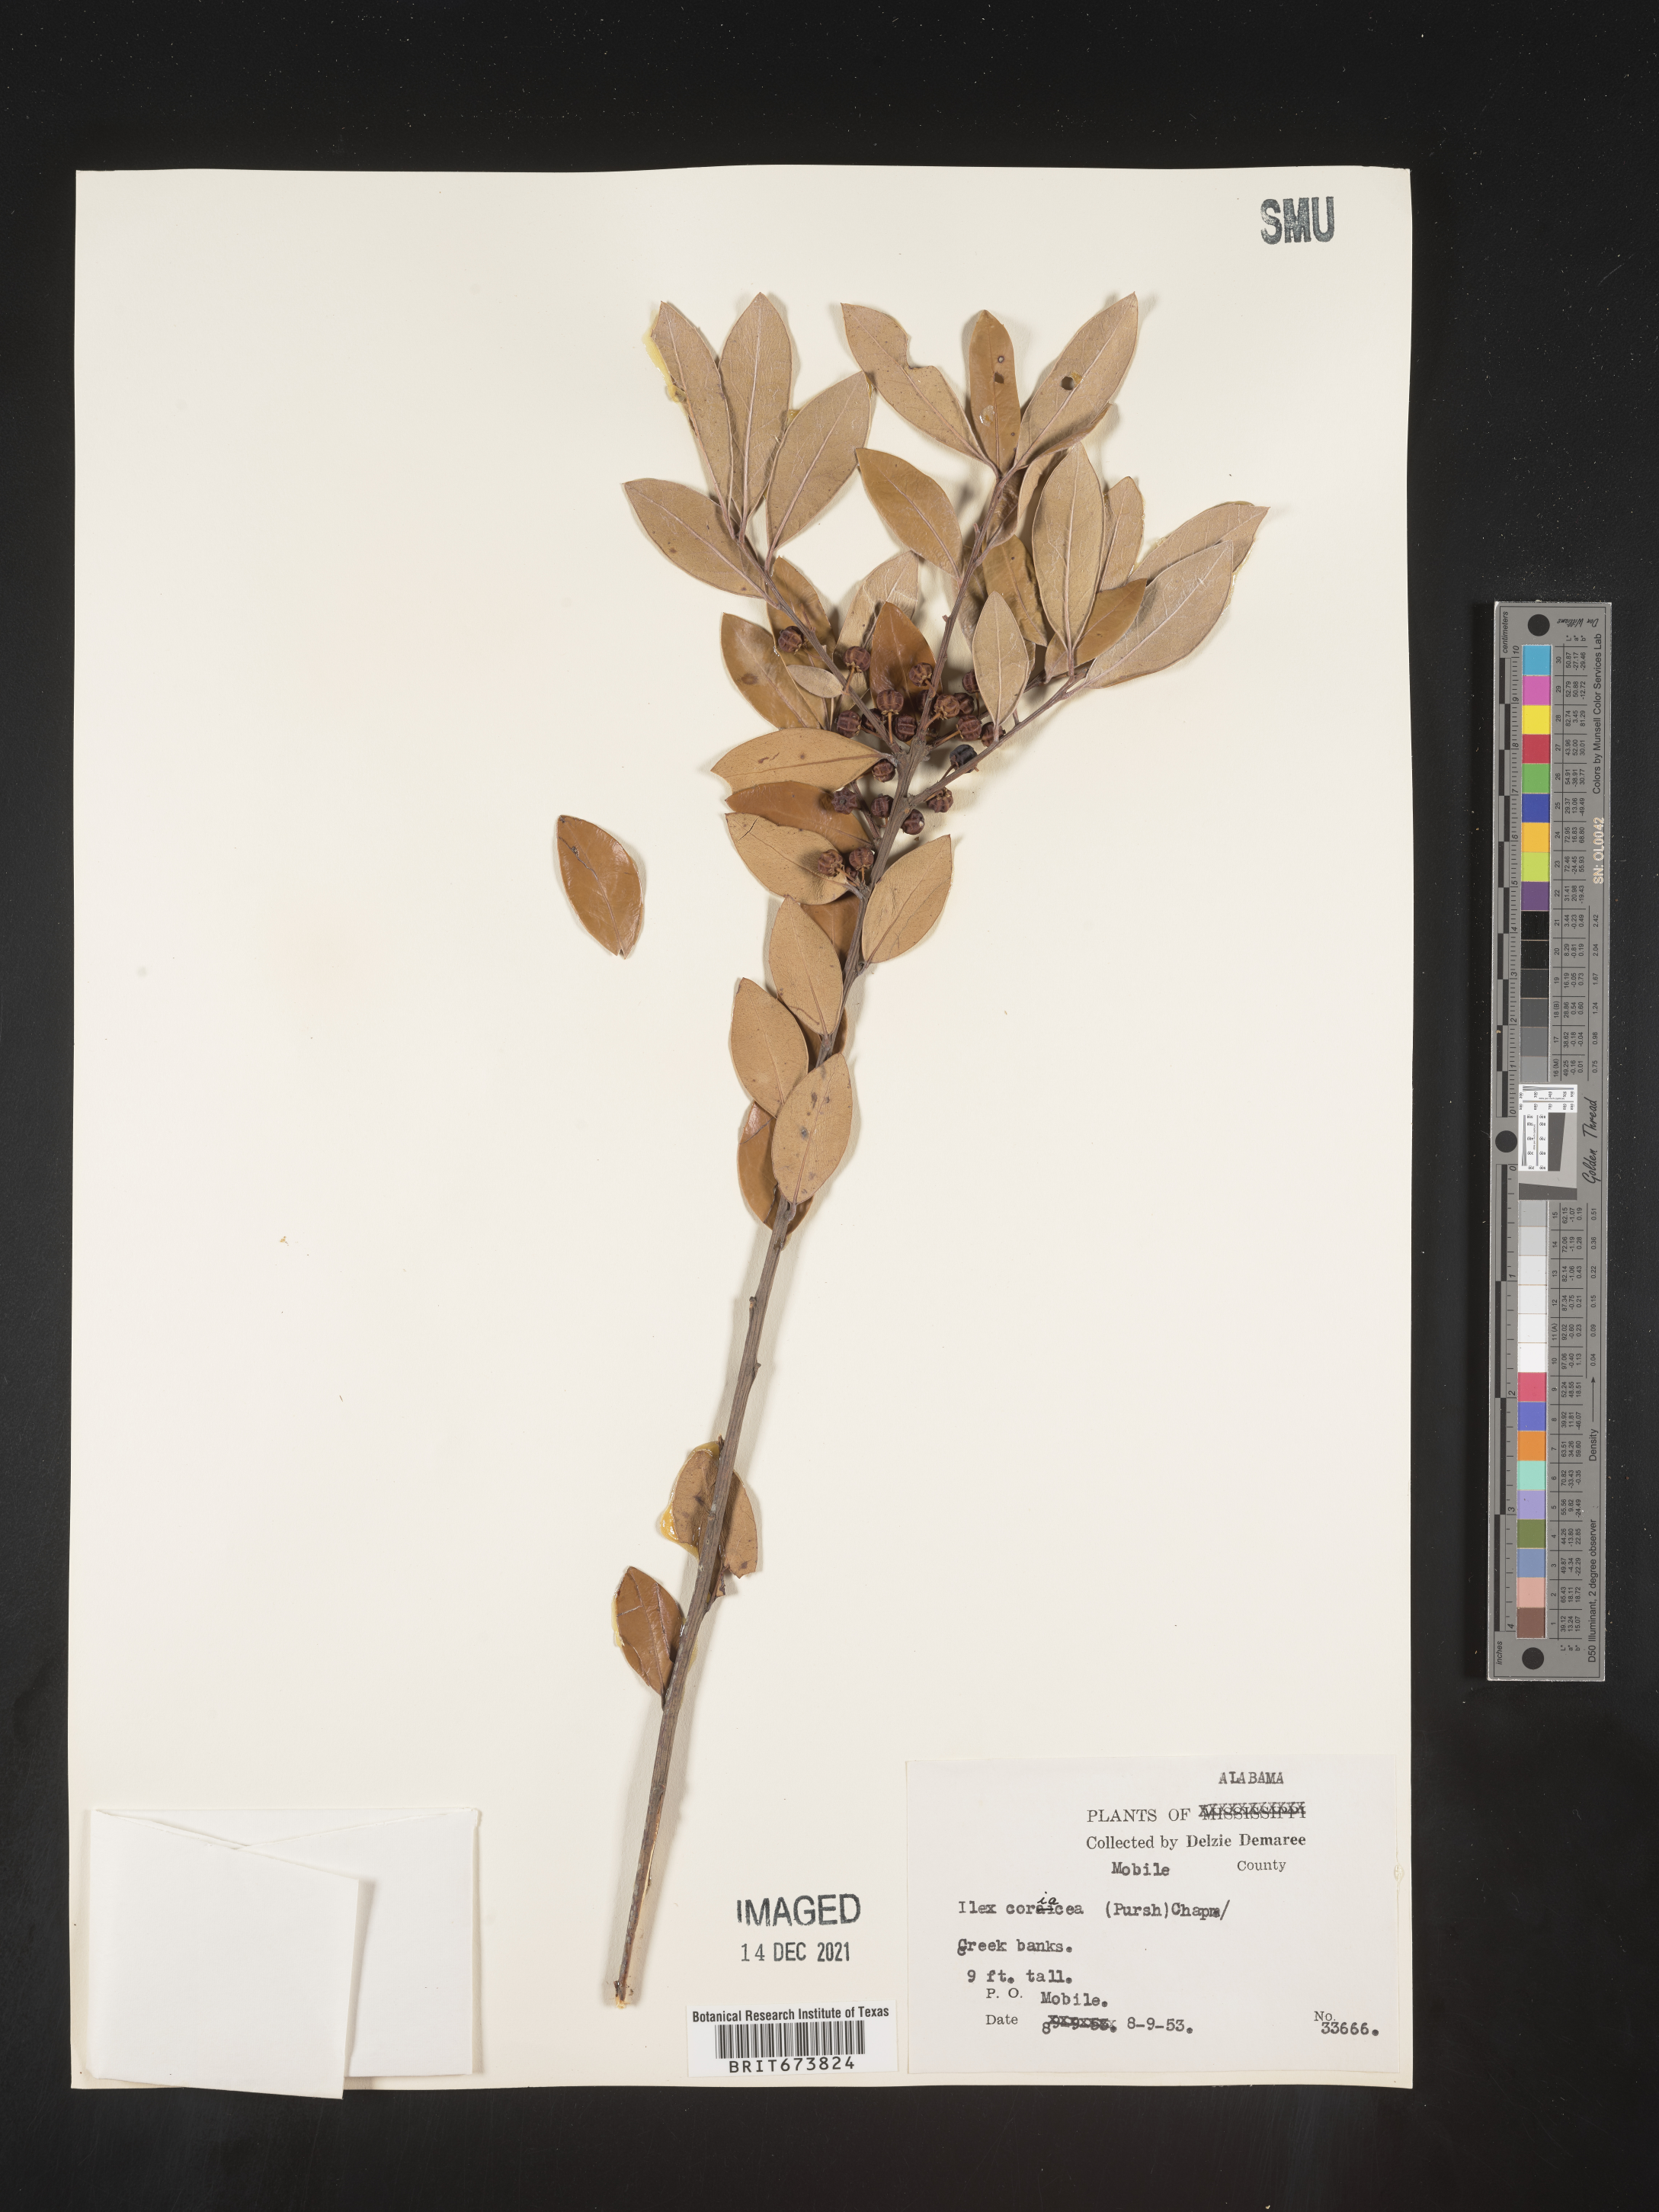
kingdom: Plantae
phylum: Tracheophyta
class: Magnoliopsida
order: Aquifoliales
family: Aquifoliaceae
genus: Ilex
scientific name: Ilex coriacea
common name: Sweet gallberry
